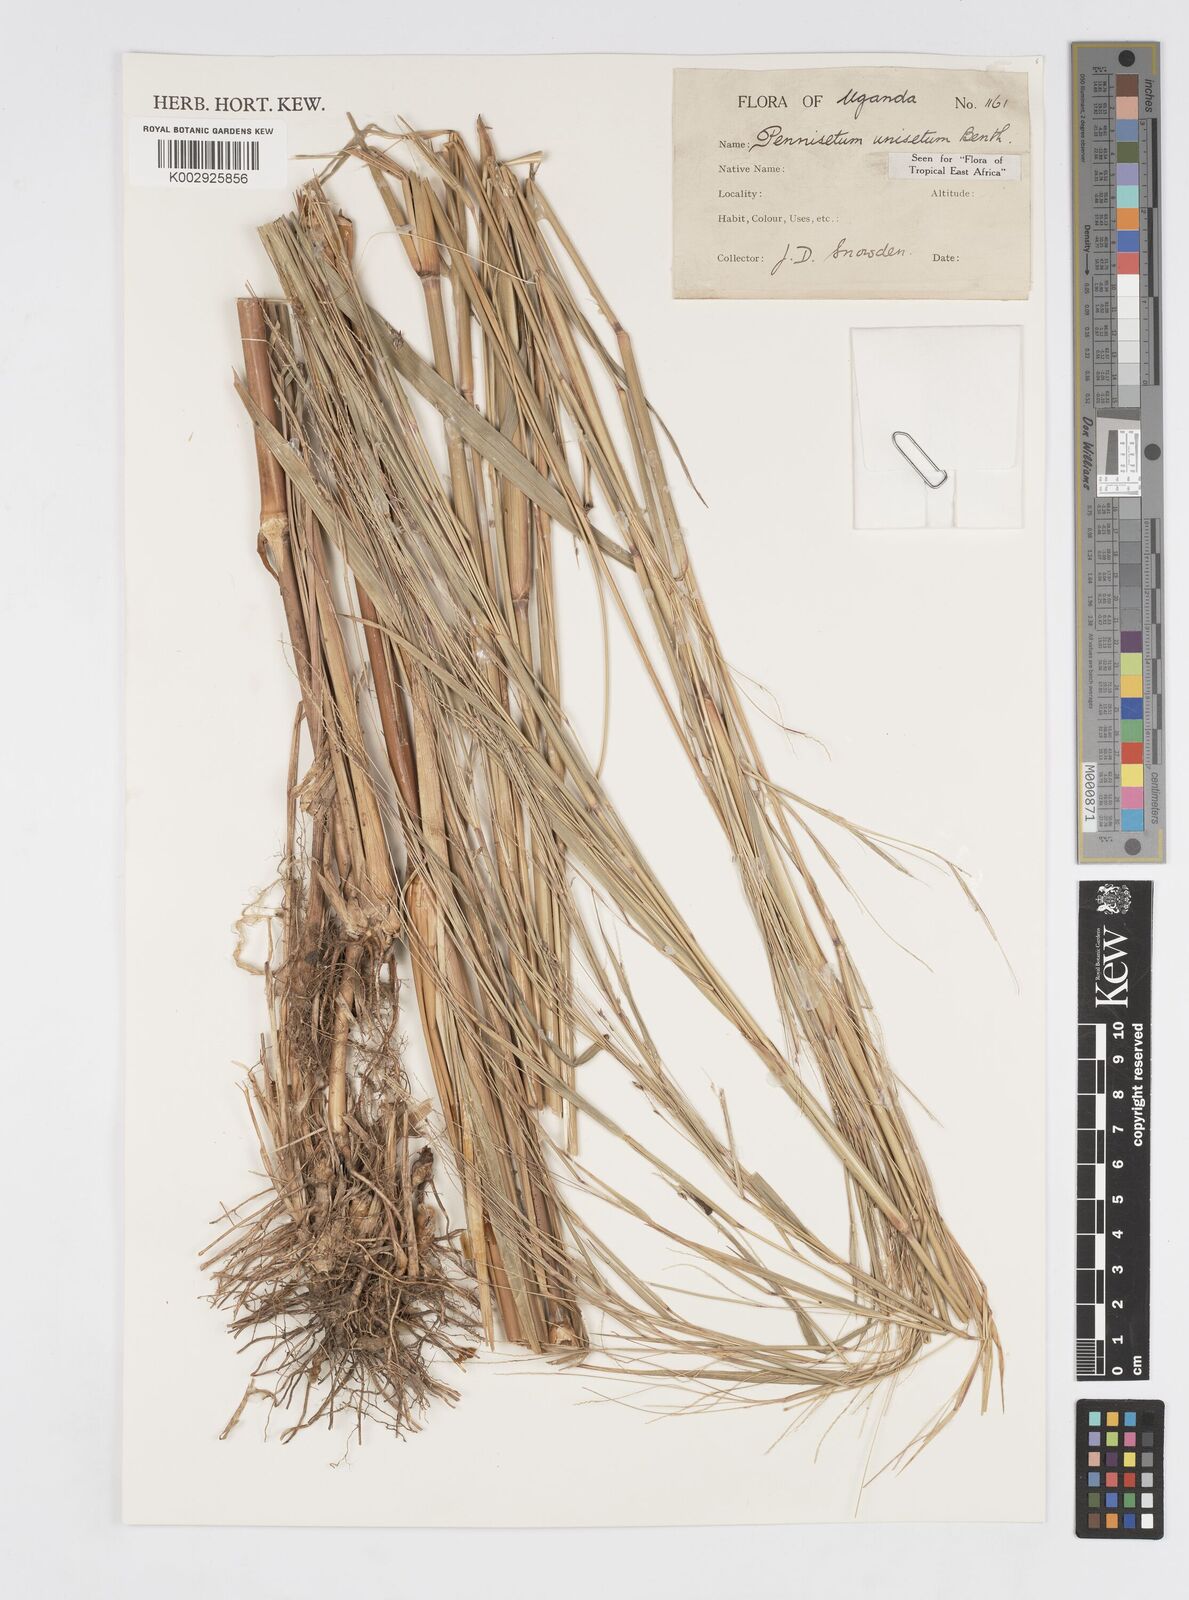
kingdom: Plantae
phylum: Tracheophyta
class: Liliopsida
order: Poales
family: Poaceae
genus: Cenchrus
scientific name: Cenchrus unisetus
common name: Natal grass
